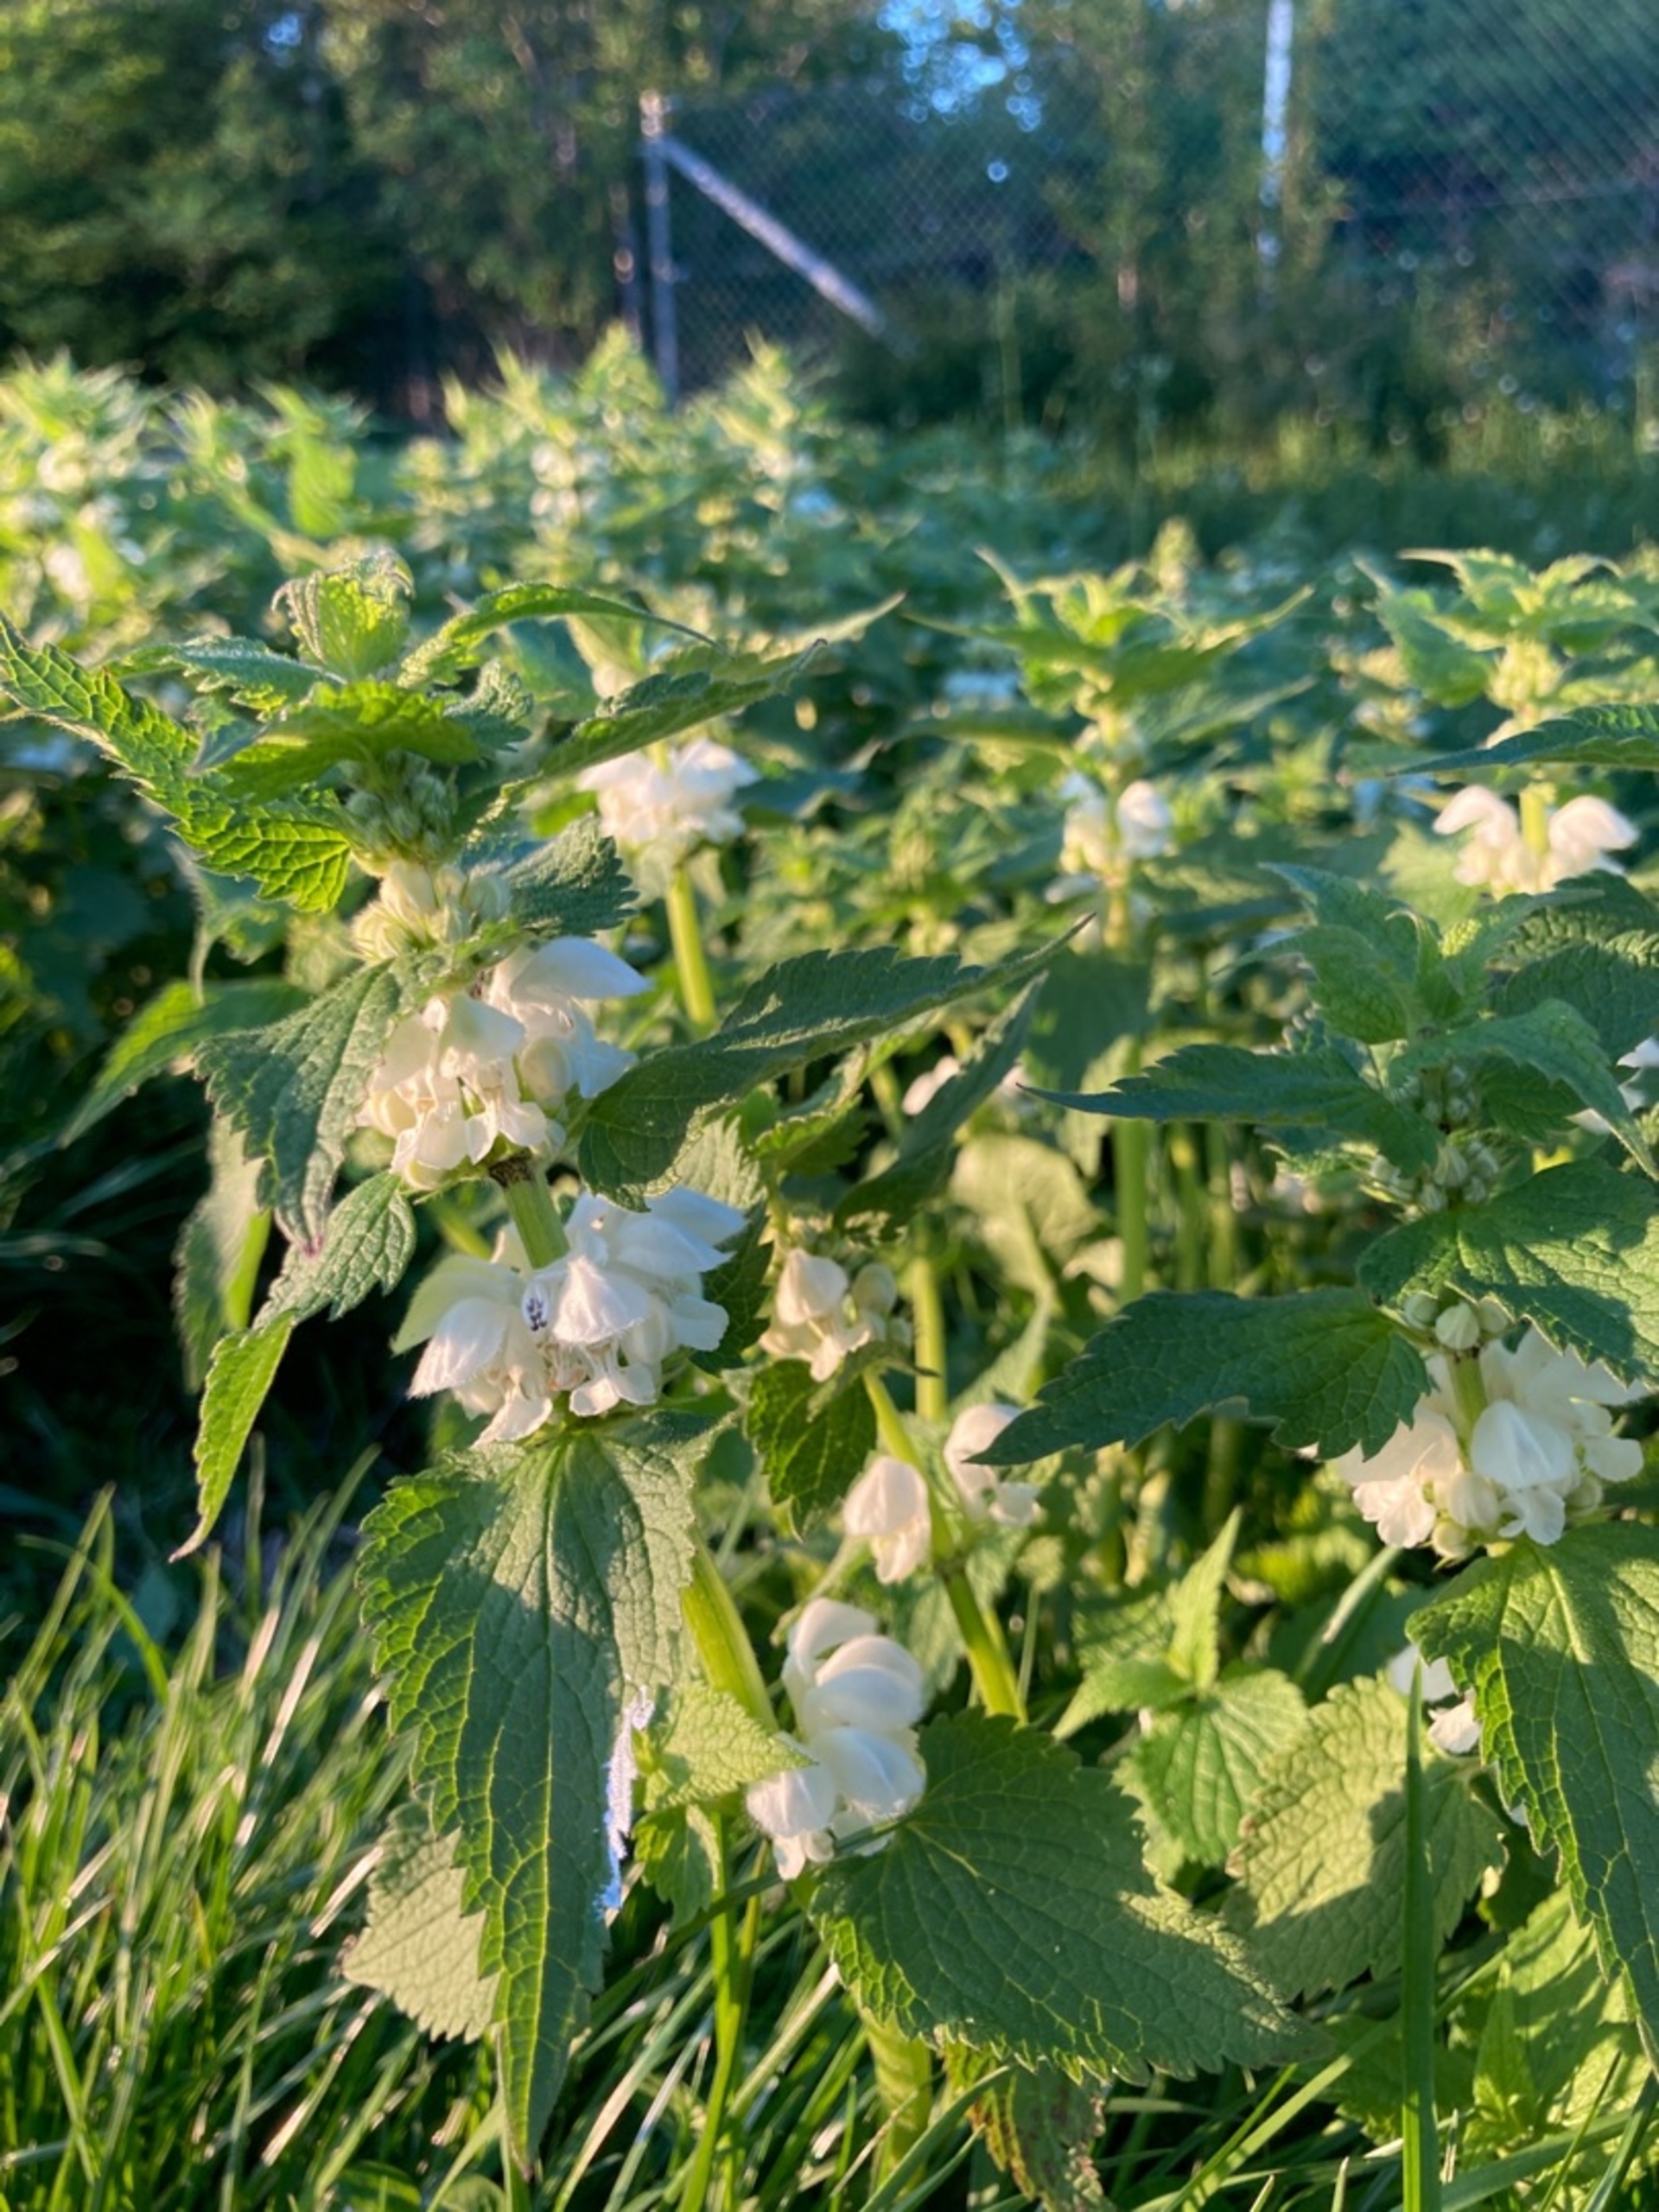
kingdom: Plantae
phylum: Tracheophyta
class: Magnoliopsida
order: Lamiales
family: Lamiaceae
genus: Lamium
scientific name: Lamium album
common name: Døvnælde
